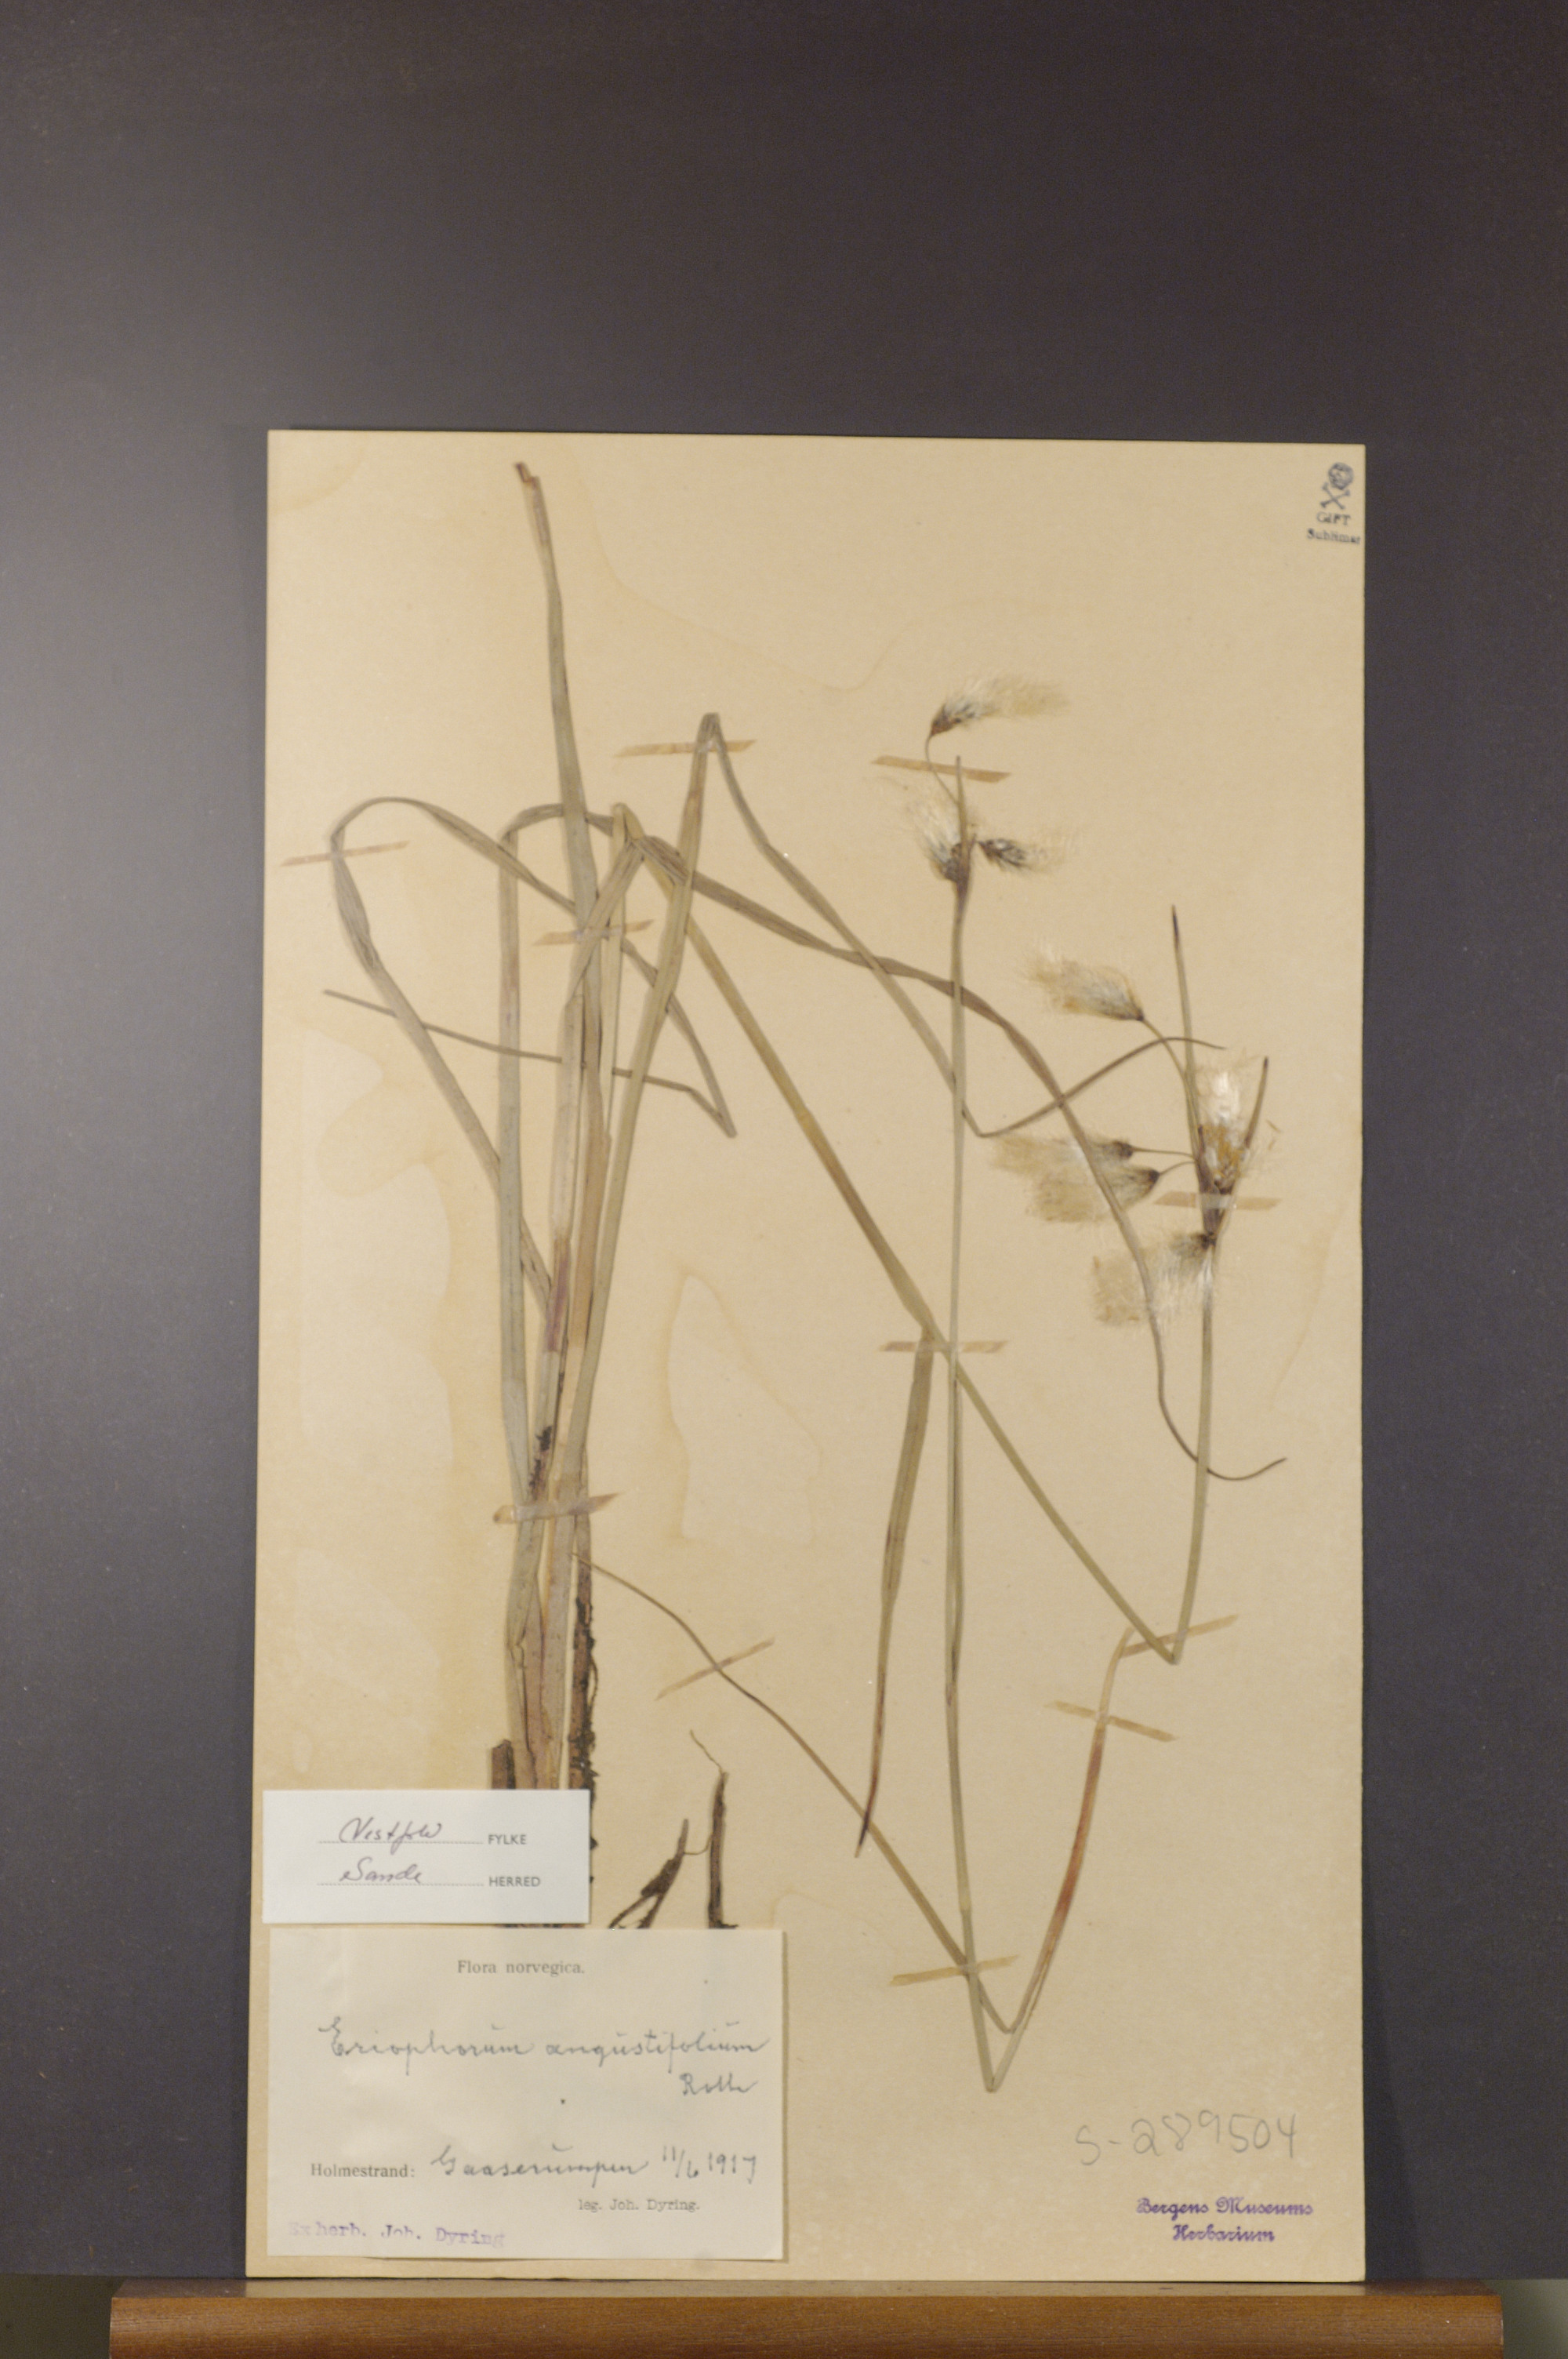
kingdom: Plantae
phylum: Tracheophyta
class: Liliopsida
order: Poales
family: Cyperaceae
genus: Eriophorum
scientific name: Eriophorum angustifolium
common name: Common cottongrass
